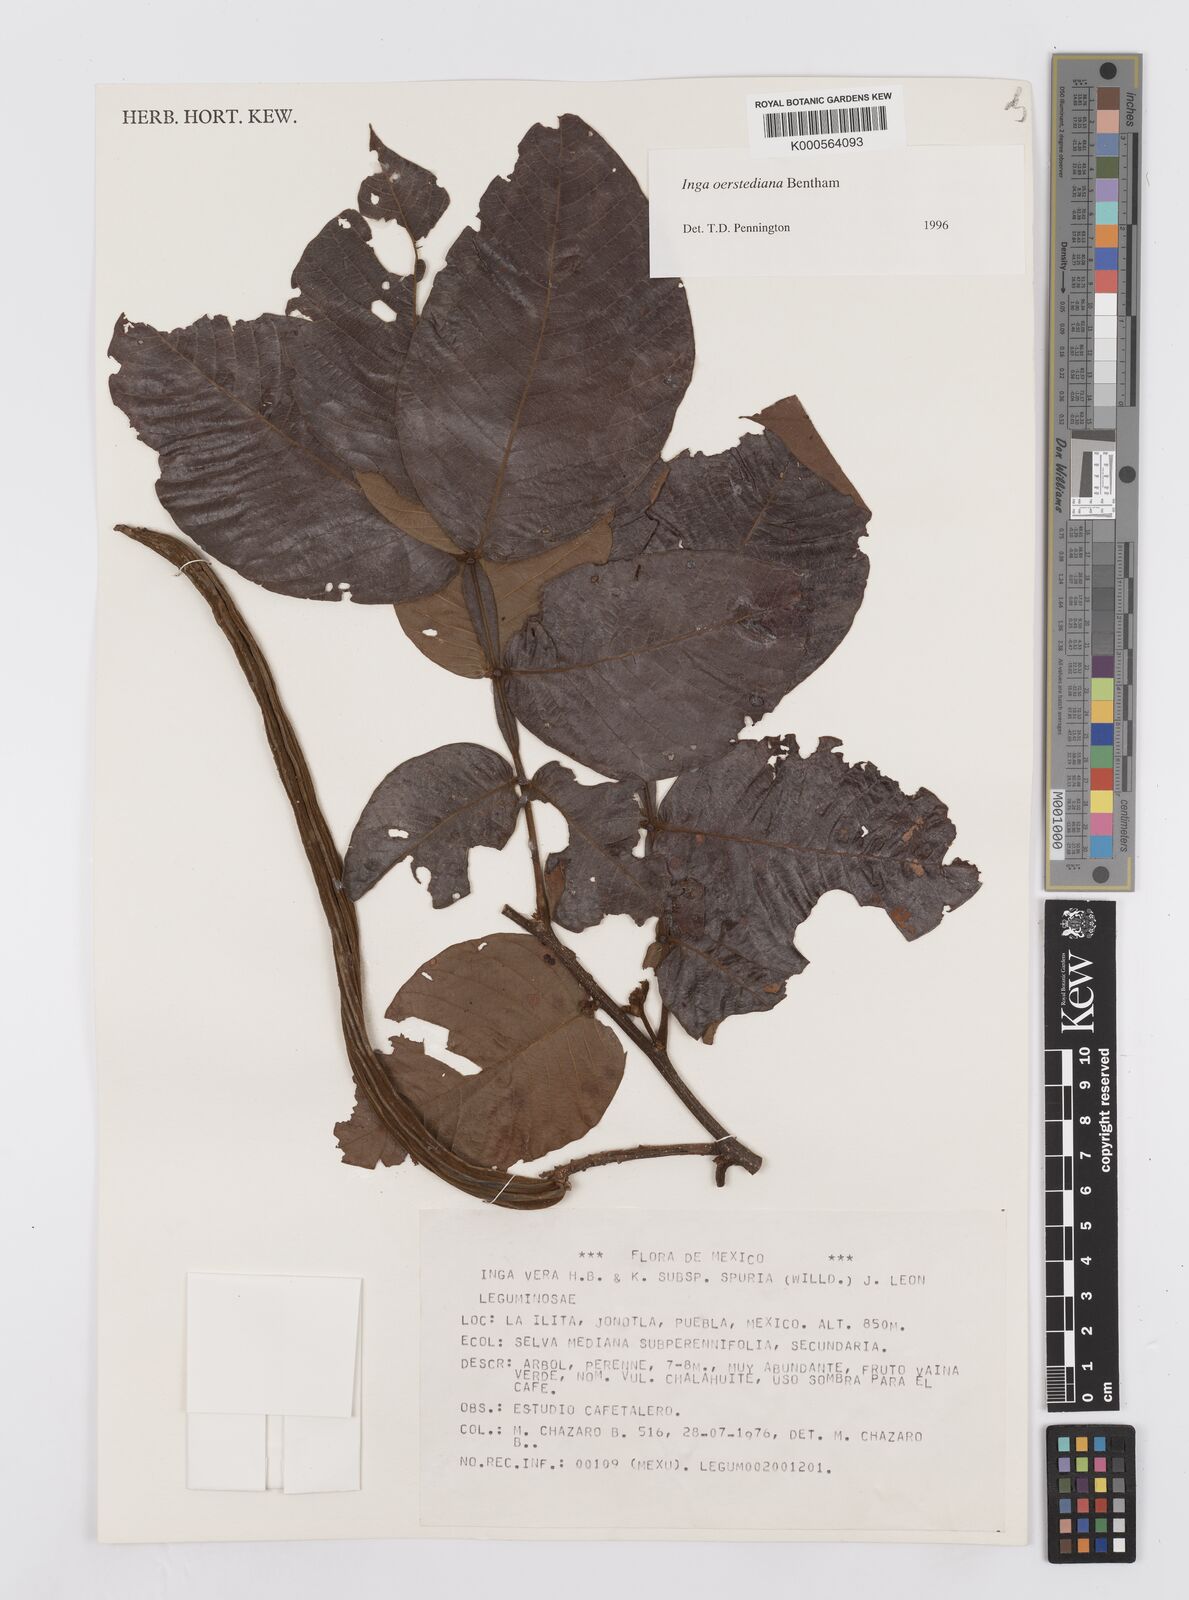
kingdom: Plantae
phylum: Tracheophyta
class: Magnoliopsida
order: Fabales
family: Fabaceae
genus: Inga
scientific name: Inga oerstediana
